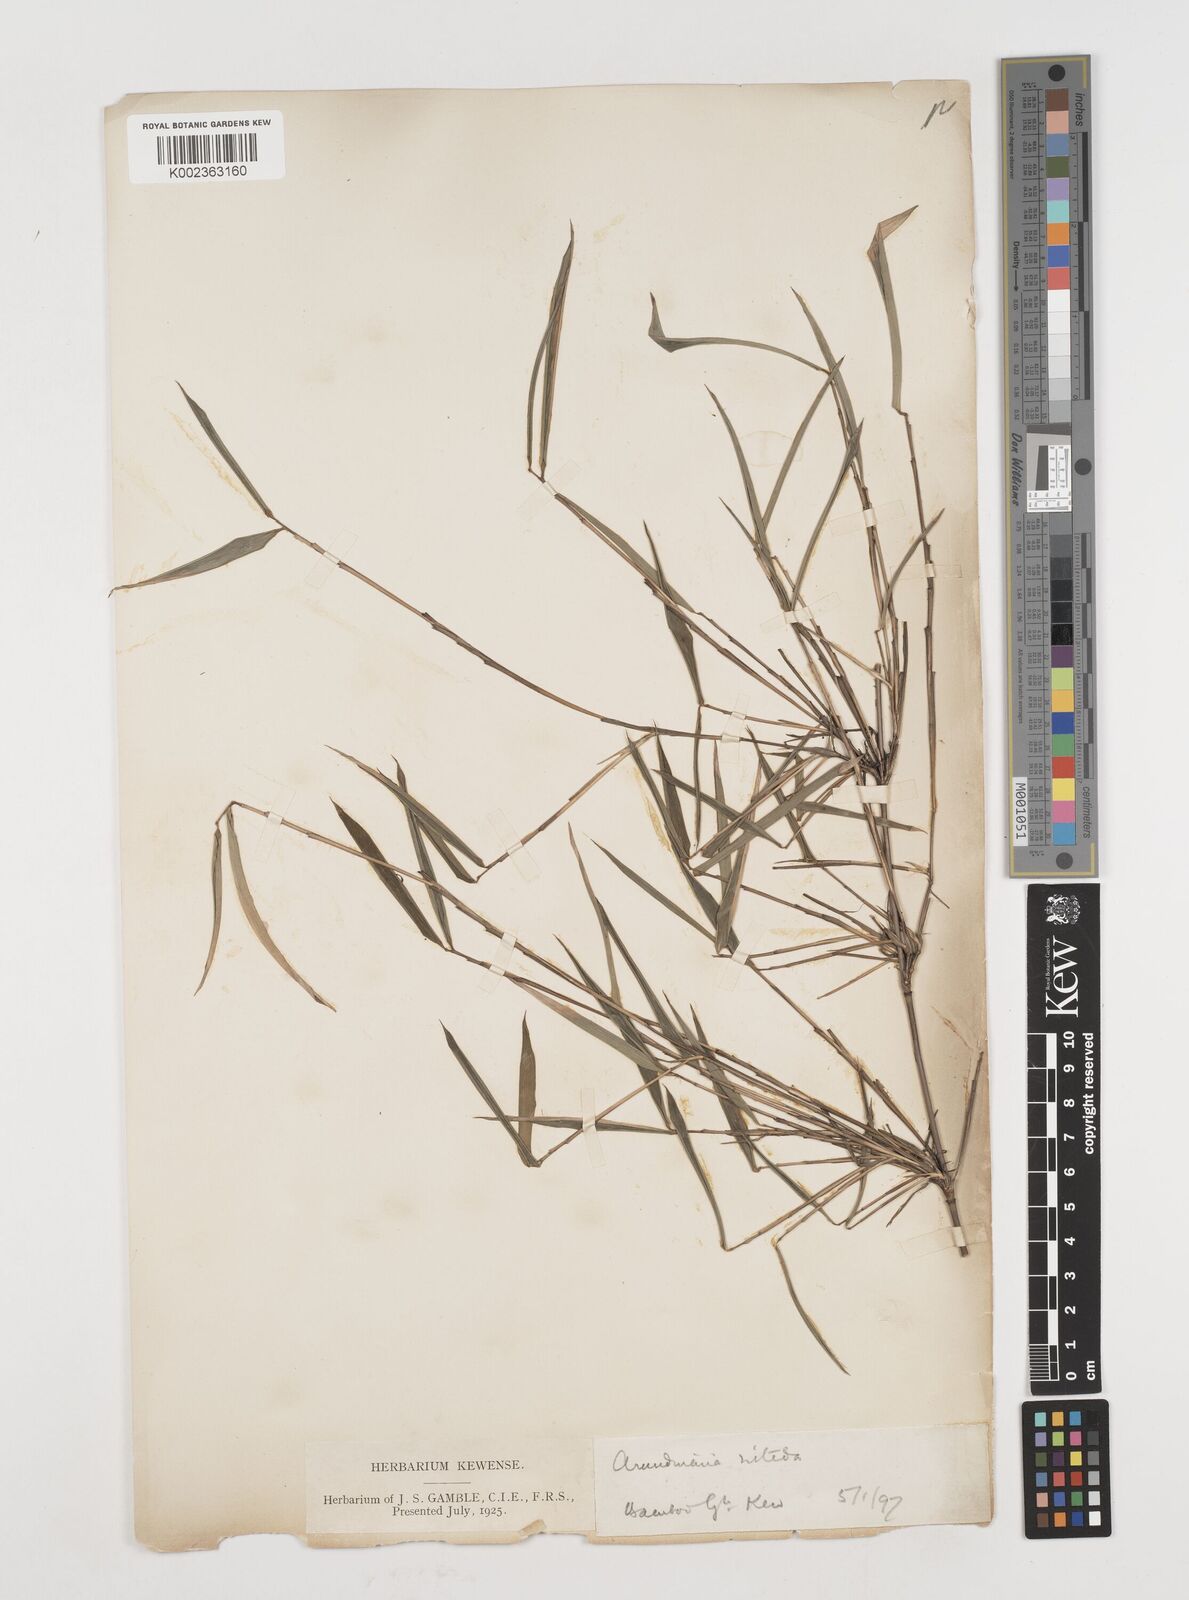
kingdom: Plantae
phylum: Tracheophyta
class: Liliopsida
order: Poales
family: Poaceae
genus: Fargesia
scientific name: Fargesia nitida ex
